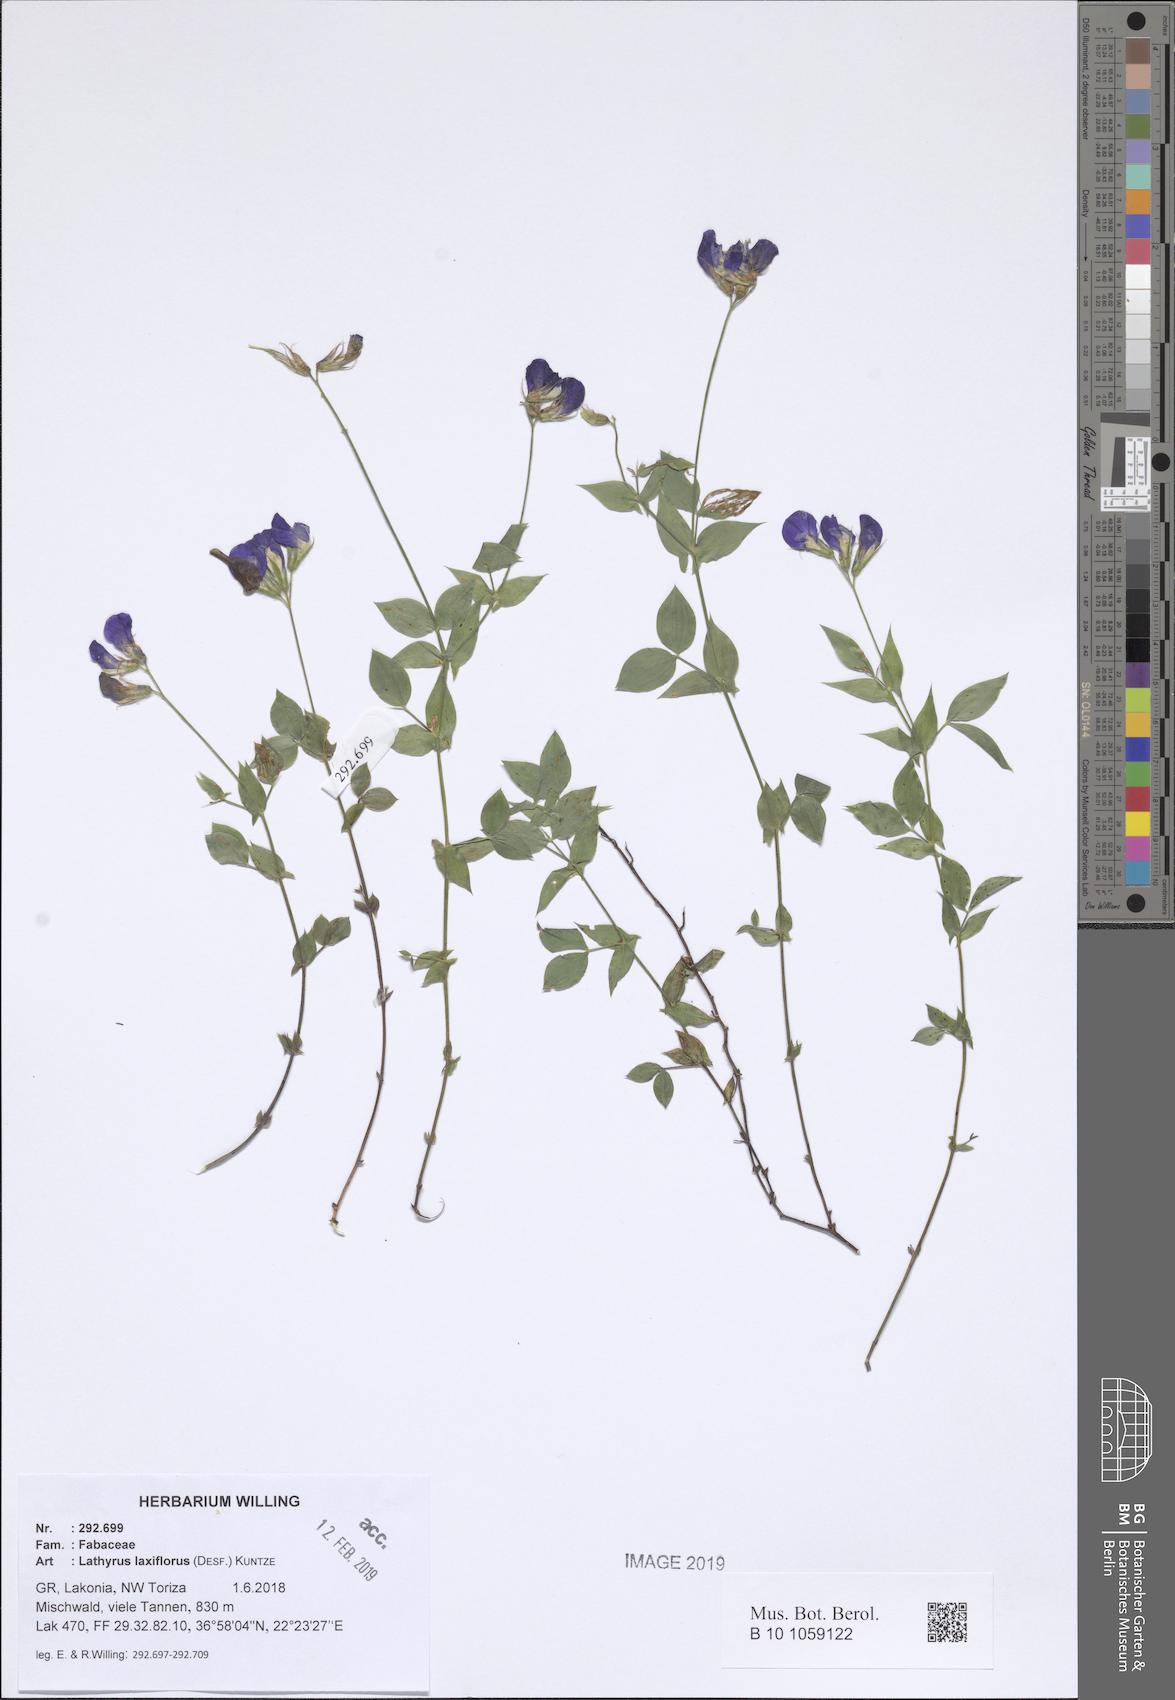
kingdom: Plantae
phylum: Tracheophyta
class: Magnoliopsida
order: Fabales
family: Fabaceae
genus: Lathyrus
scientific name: Lathyrus laxiflorus
